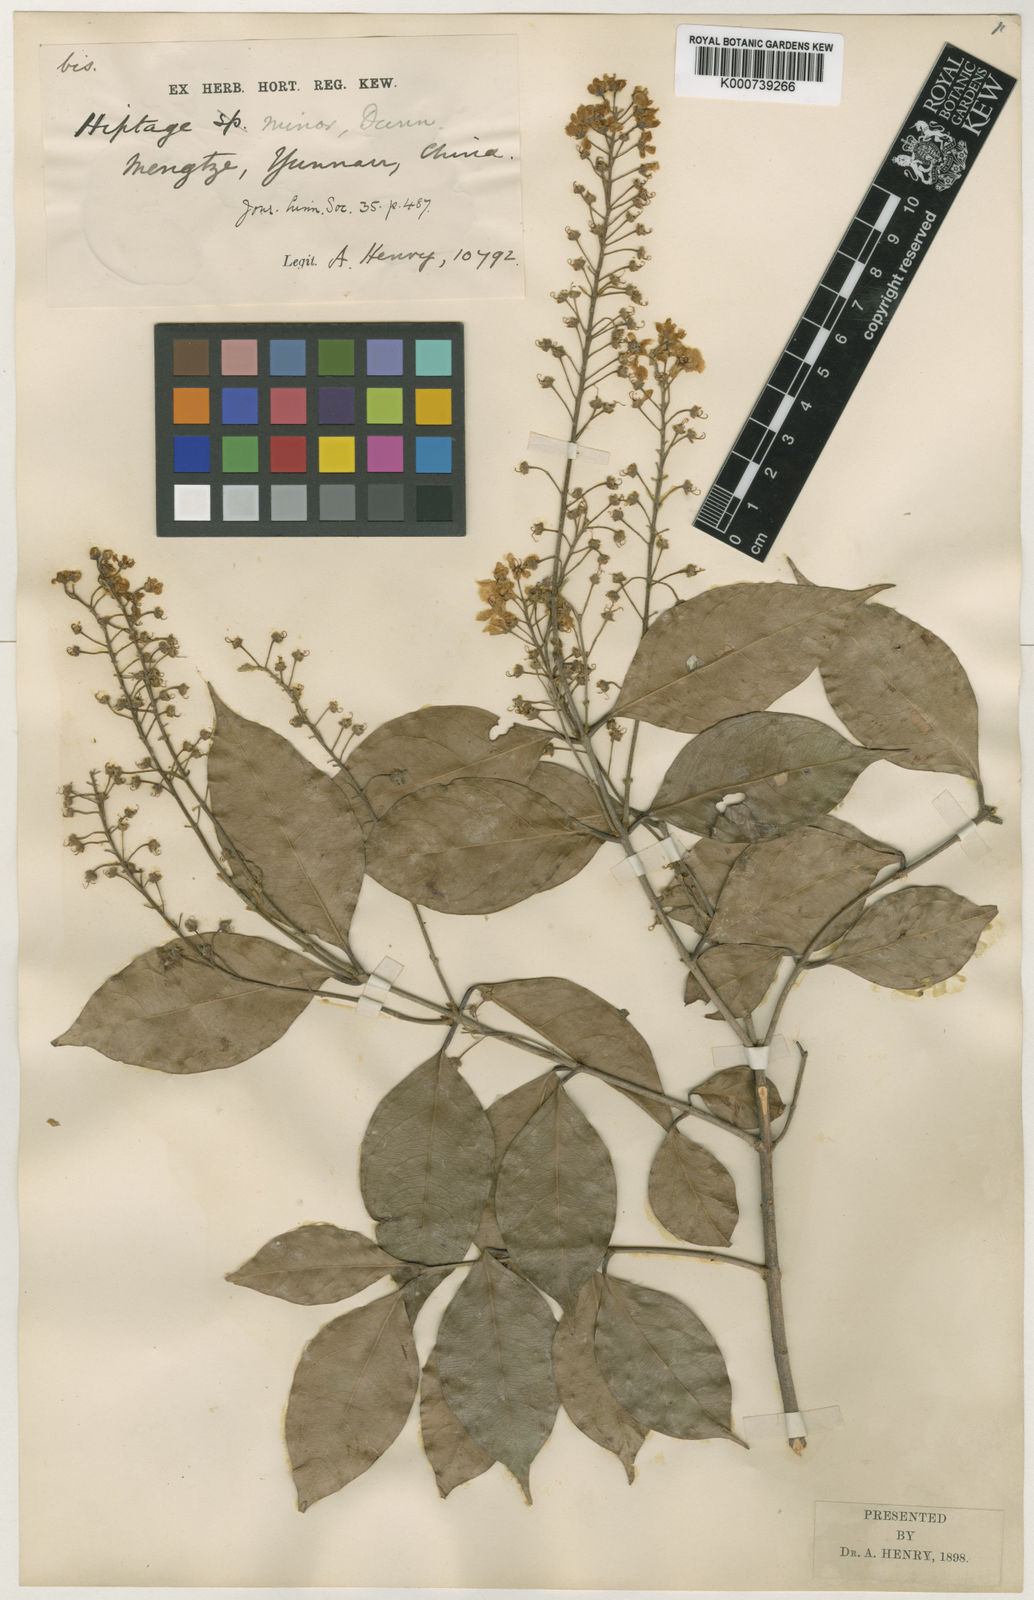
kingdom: Plantae
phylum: Tracheophyta
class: Magnoliopsida
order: Malpighiales
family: Malpighiaceae
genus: Hiptage
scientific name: Hiptage minor
